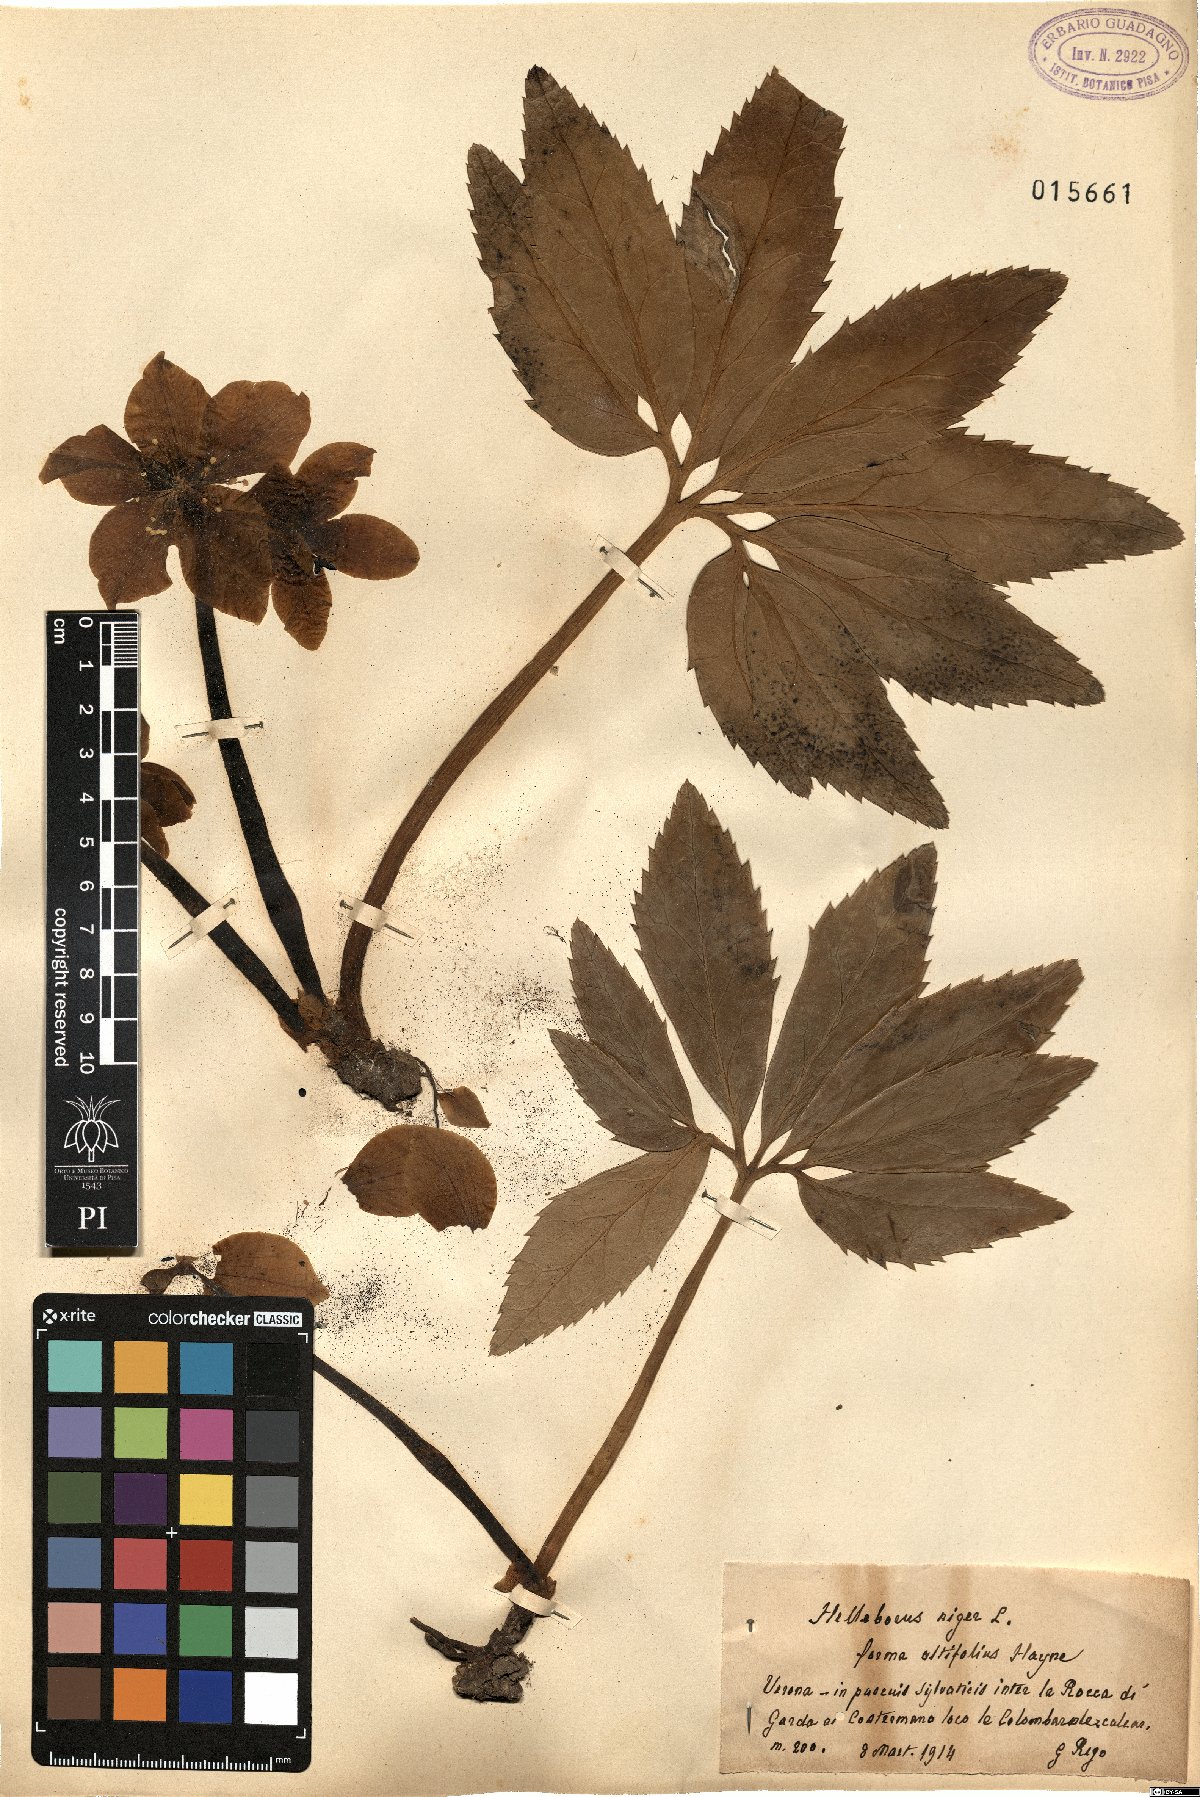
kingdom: Plantae
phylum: Tracheophyta
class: Magnoliopsida
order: Ranunculales
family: Ranunculaceae
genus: Helleborus
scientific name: Helleborus niger
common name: Black hellebore
